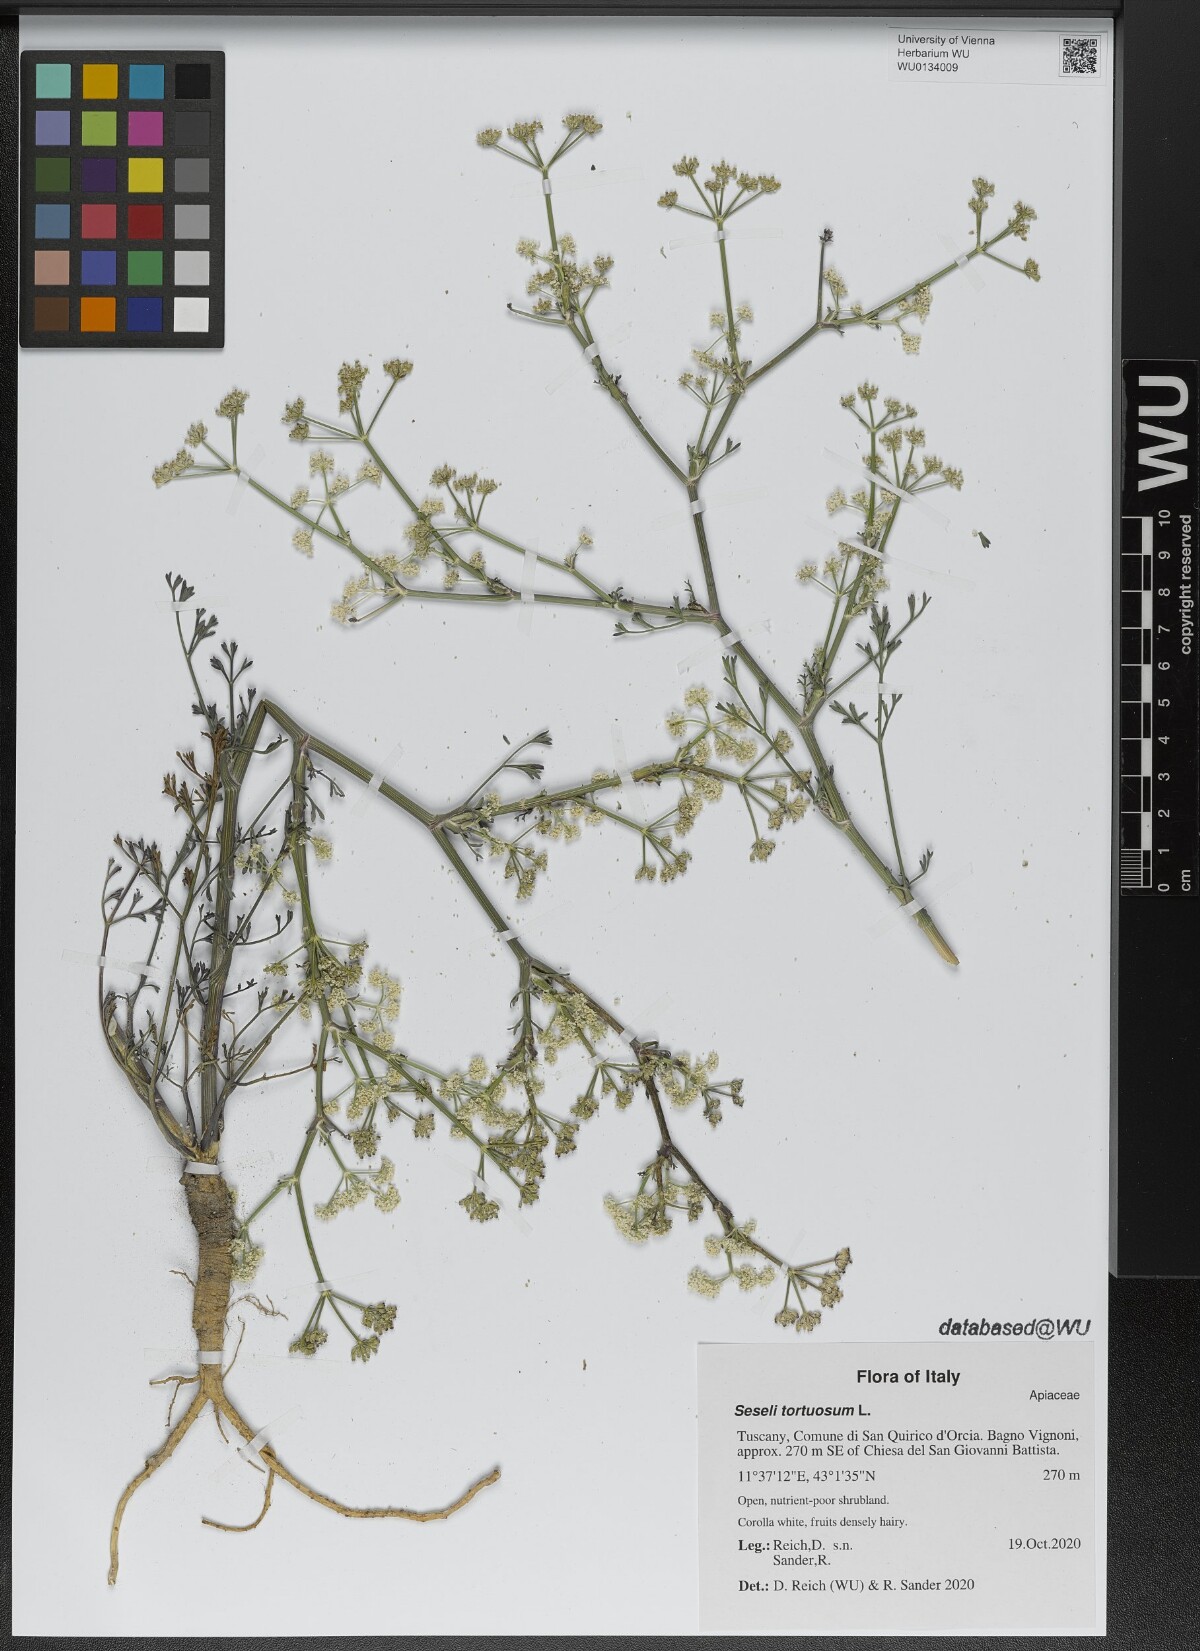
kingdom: Plantae
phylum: Tracheophyta
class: Magnoliopsida
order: Apiales
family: Apiaceae
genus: Seseli
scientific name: Seseli tortuosum
